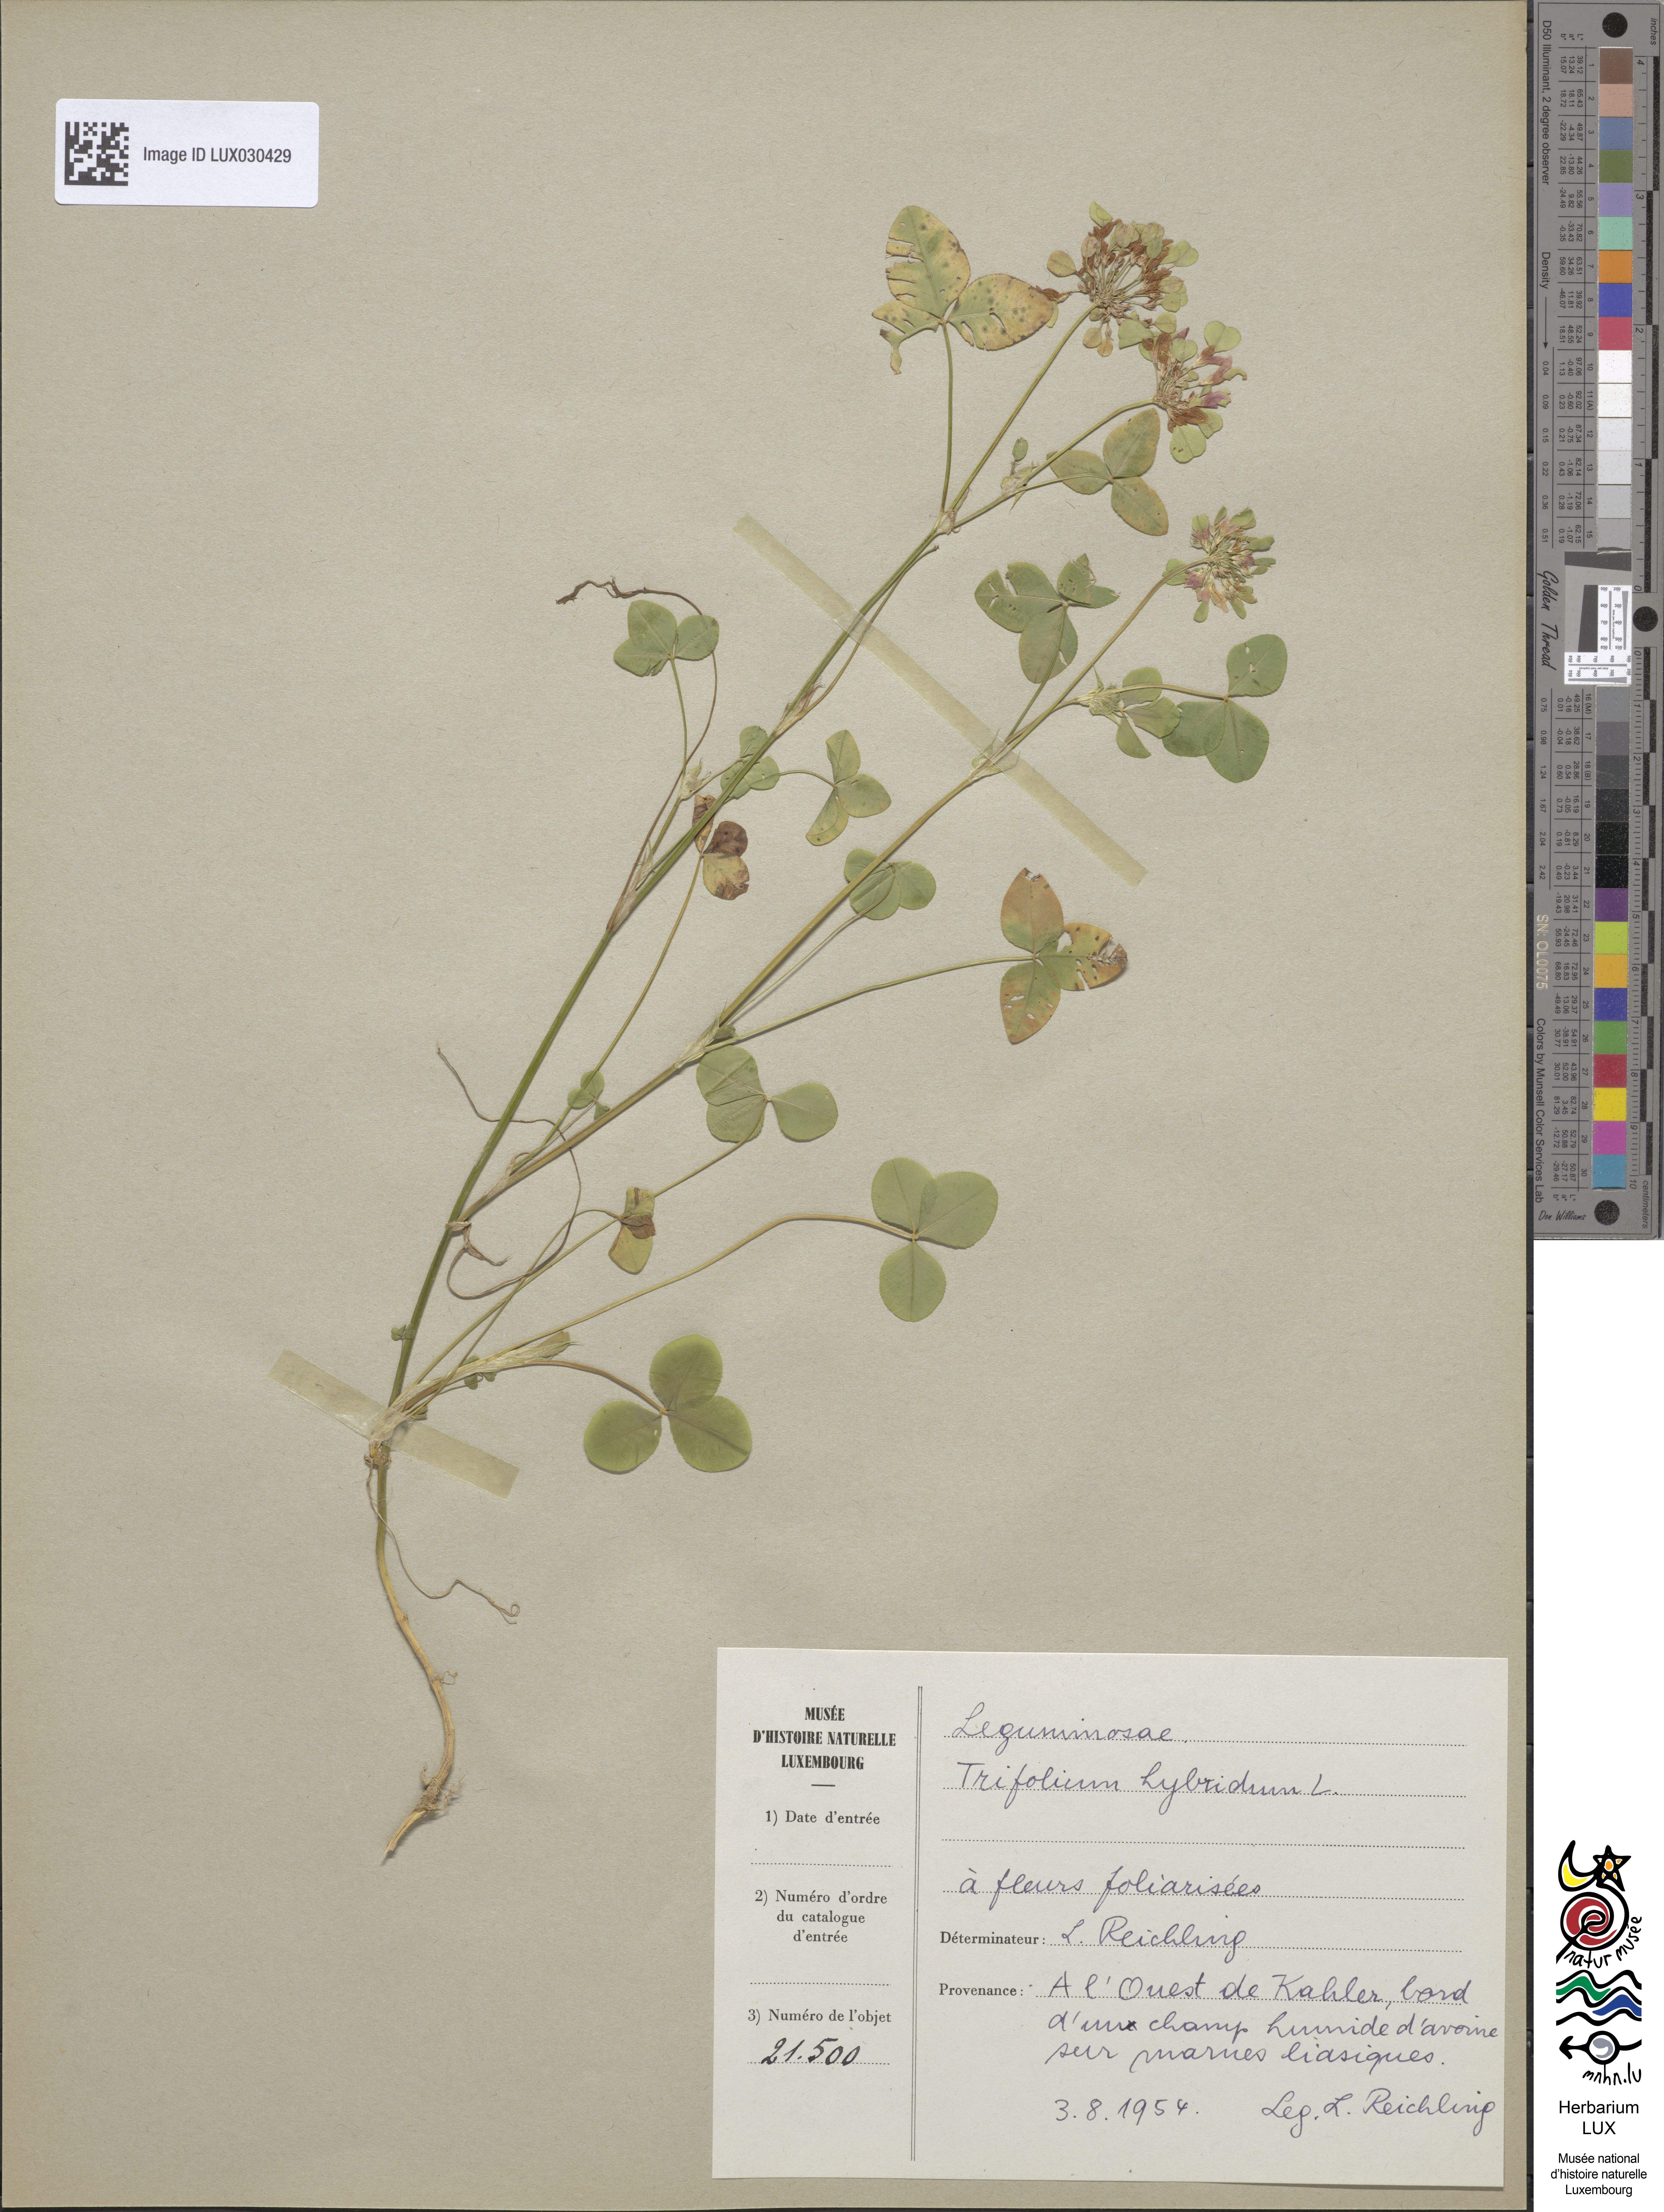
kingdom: Plantae
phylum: Tracheophyta
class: Magnoliopsida
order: Fabales
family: Fabaceae
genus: Trifolium
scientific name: Trifolium hybridum
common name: Alsike clover
